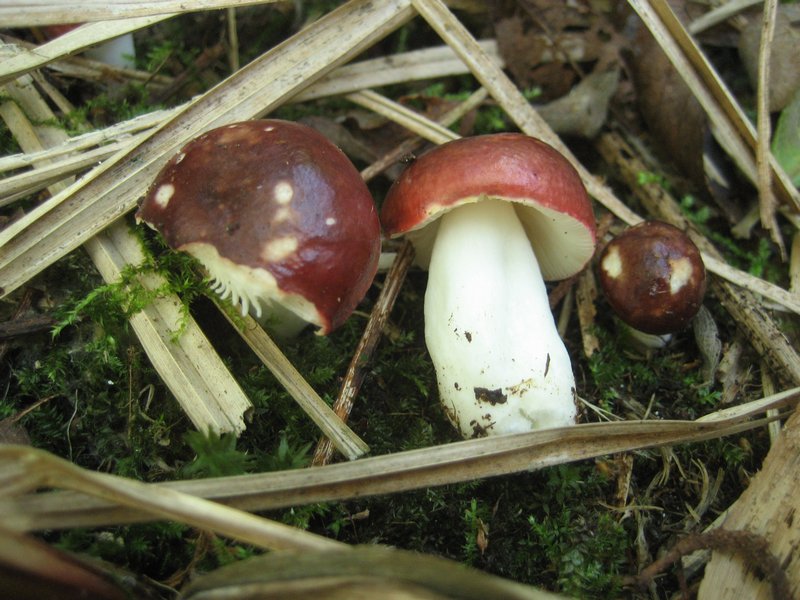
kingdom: Fungi
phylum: Basidiomycota
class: Agaricomycetes
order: Russulales
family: Russulaceae
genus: Russula
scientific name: Russula laccata
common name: klit-skørhat
